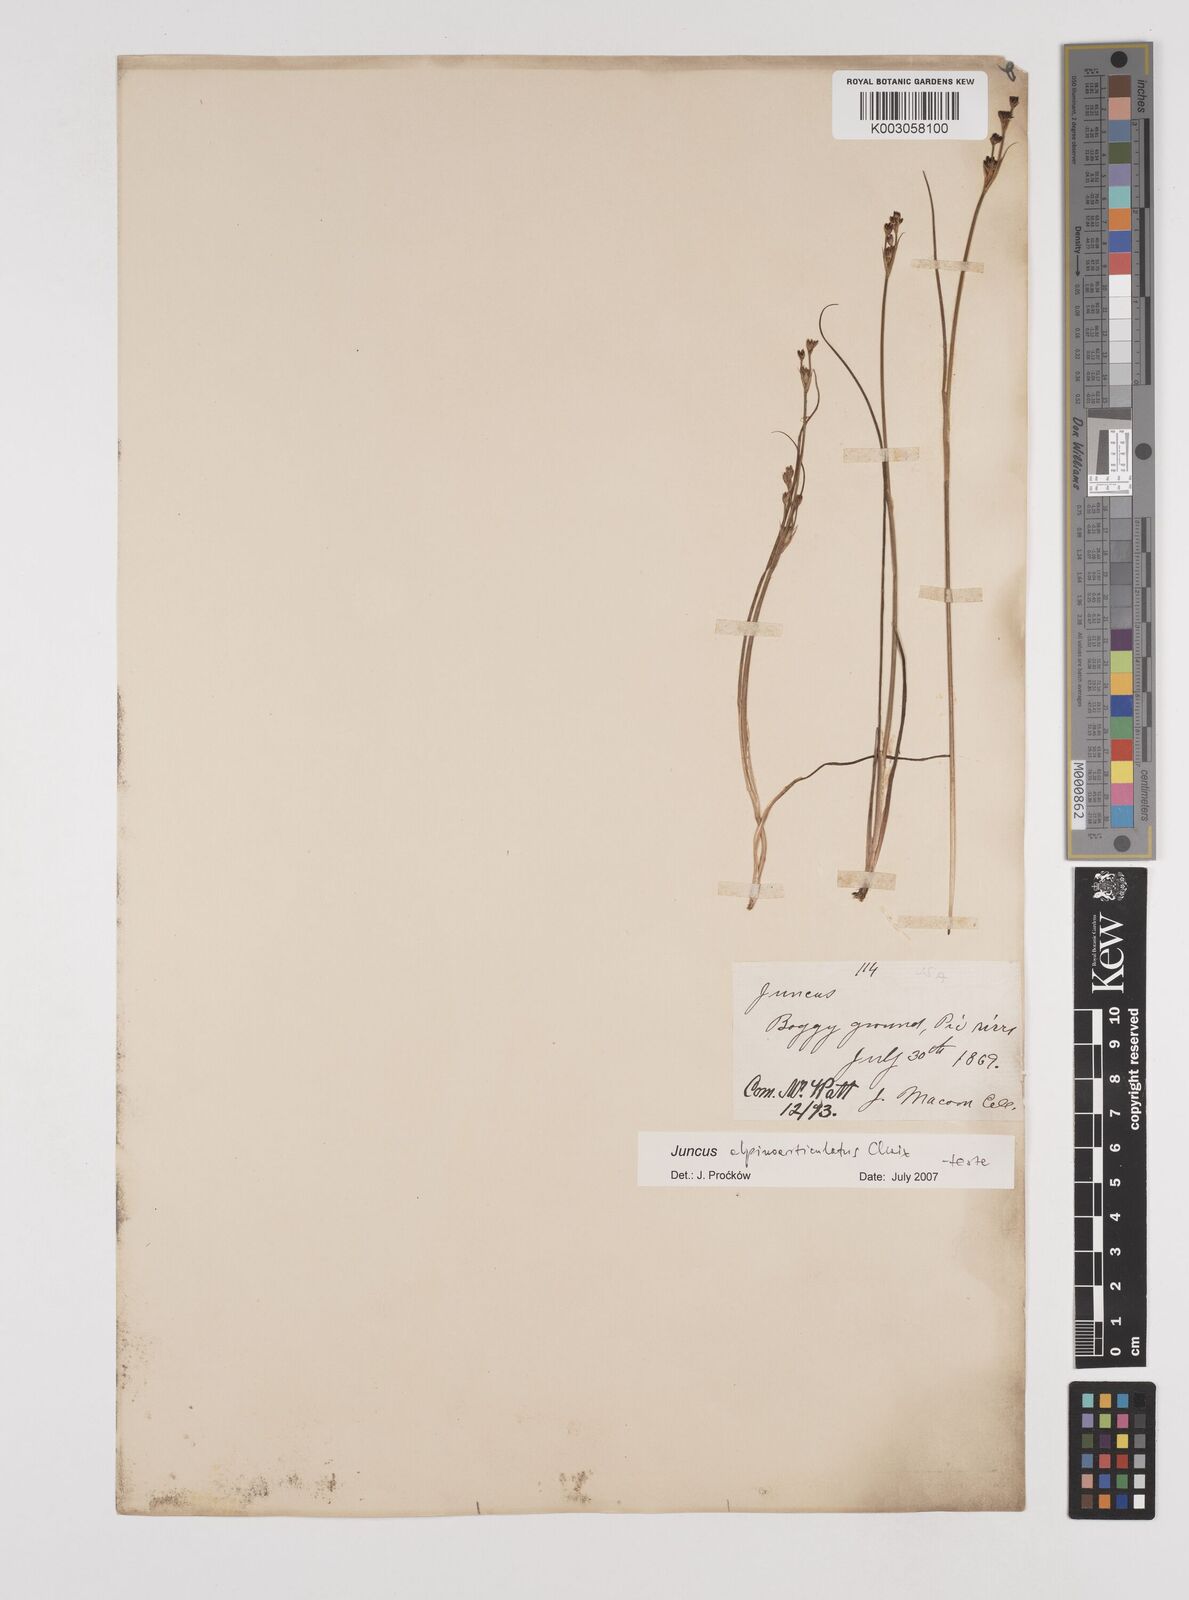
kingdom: Plantae
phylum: Tracheophyta
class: Liliopsida
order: Poales
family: Juncaceae
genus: Juncus
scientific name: Juncus alpinoarticulatus
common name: Alpine rush
